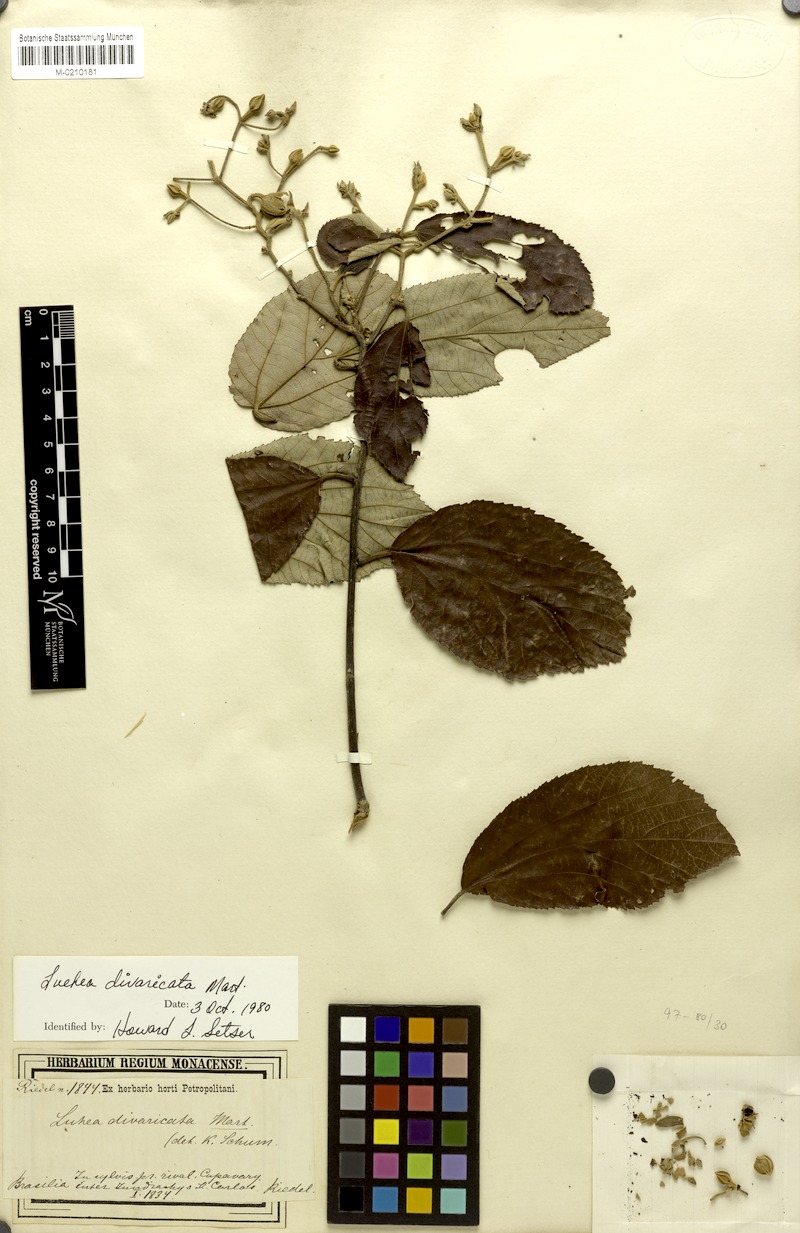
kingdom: Plantae
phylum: Tracheophyta
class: Magnoliopsida
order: Malvales
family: Malvaceae
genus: Luehea
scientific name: Luehea divaricata
